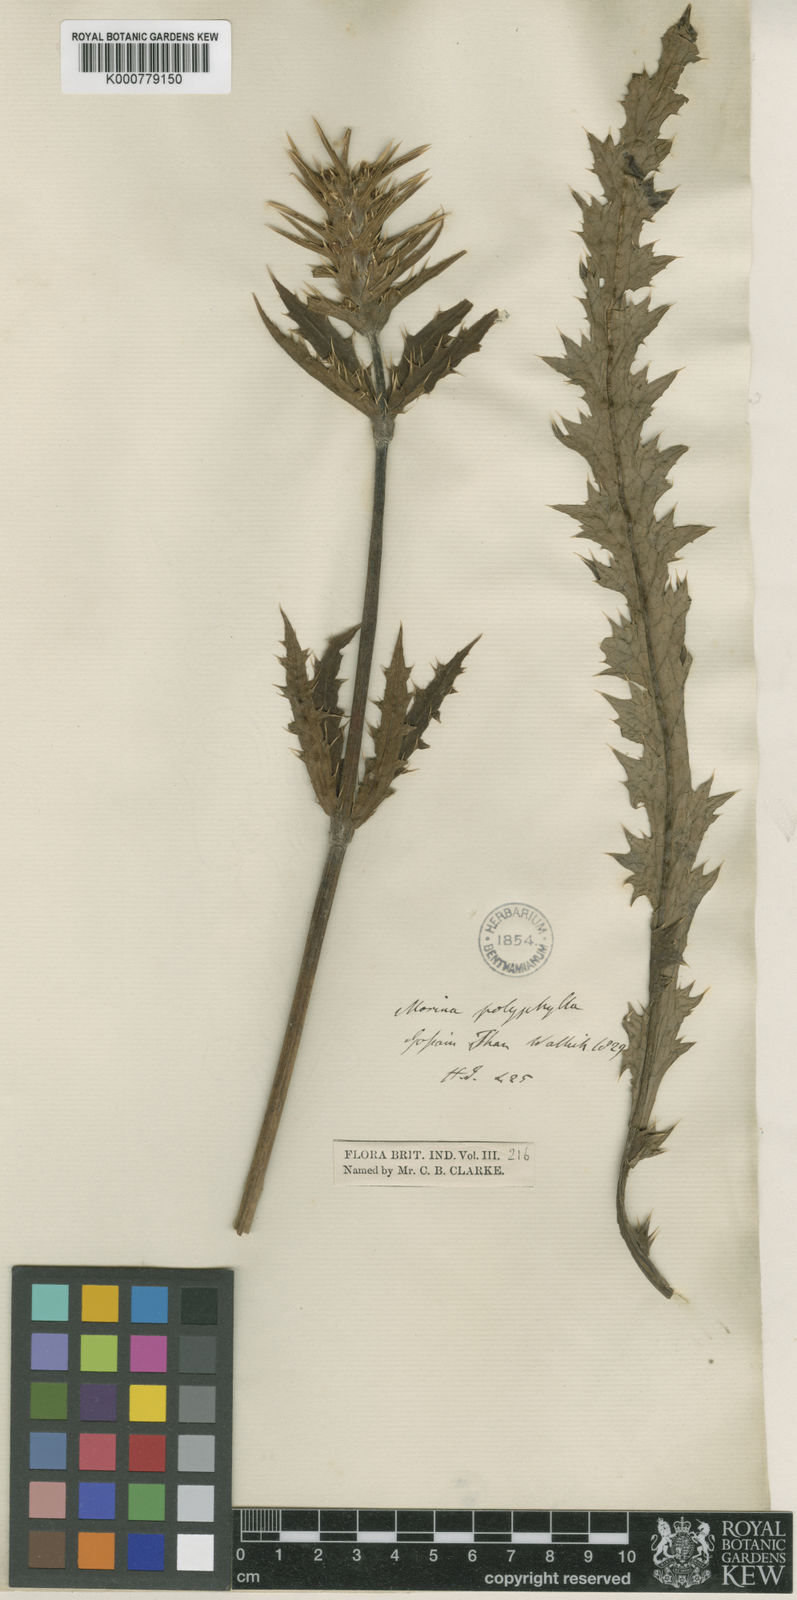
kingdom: Plantae
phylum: Tracheophyta
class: Magnoliopsida
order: Dipsacales
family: Caprifoliaceae
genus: Cryptothladia
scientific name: Cryptothladia polyphylla
